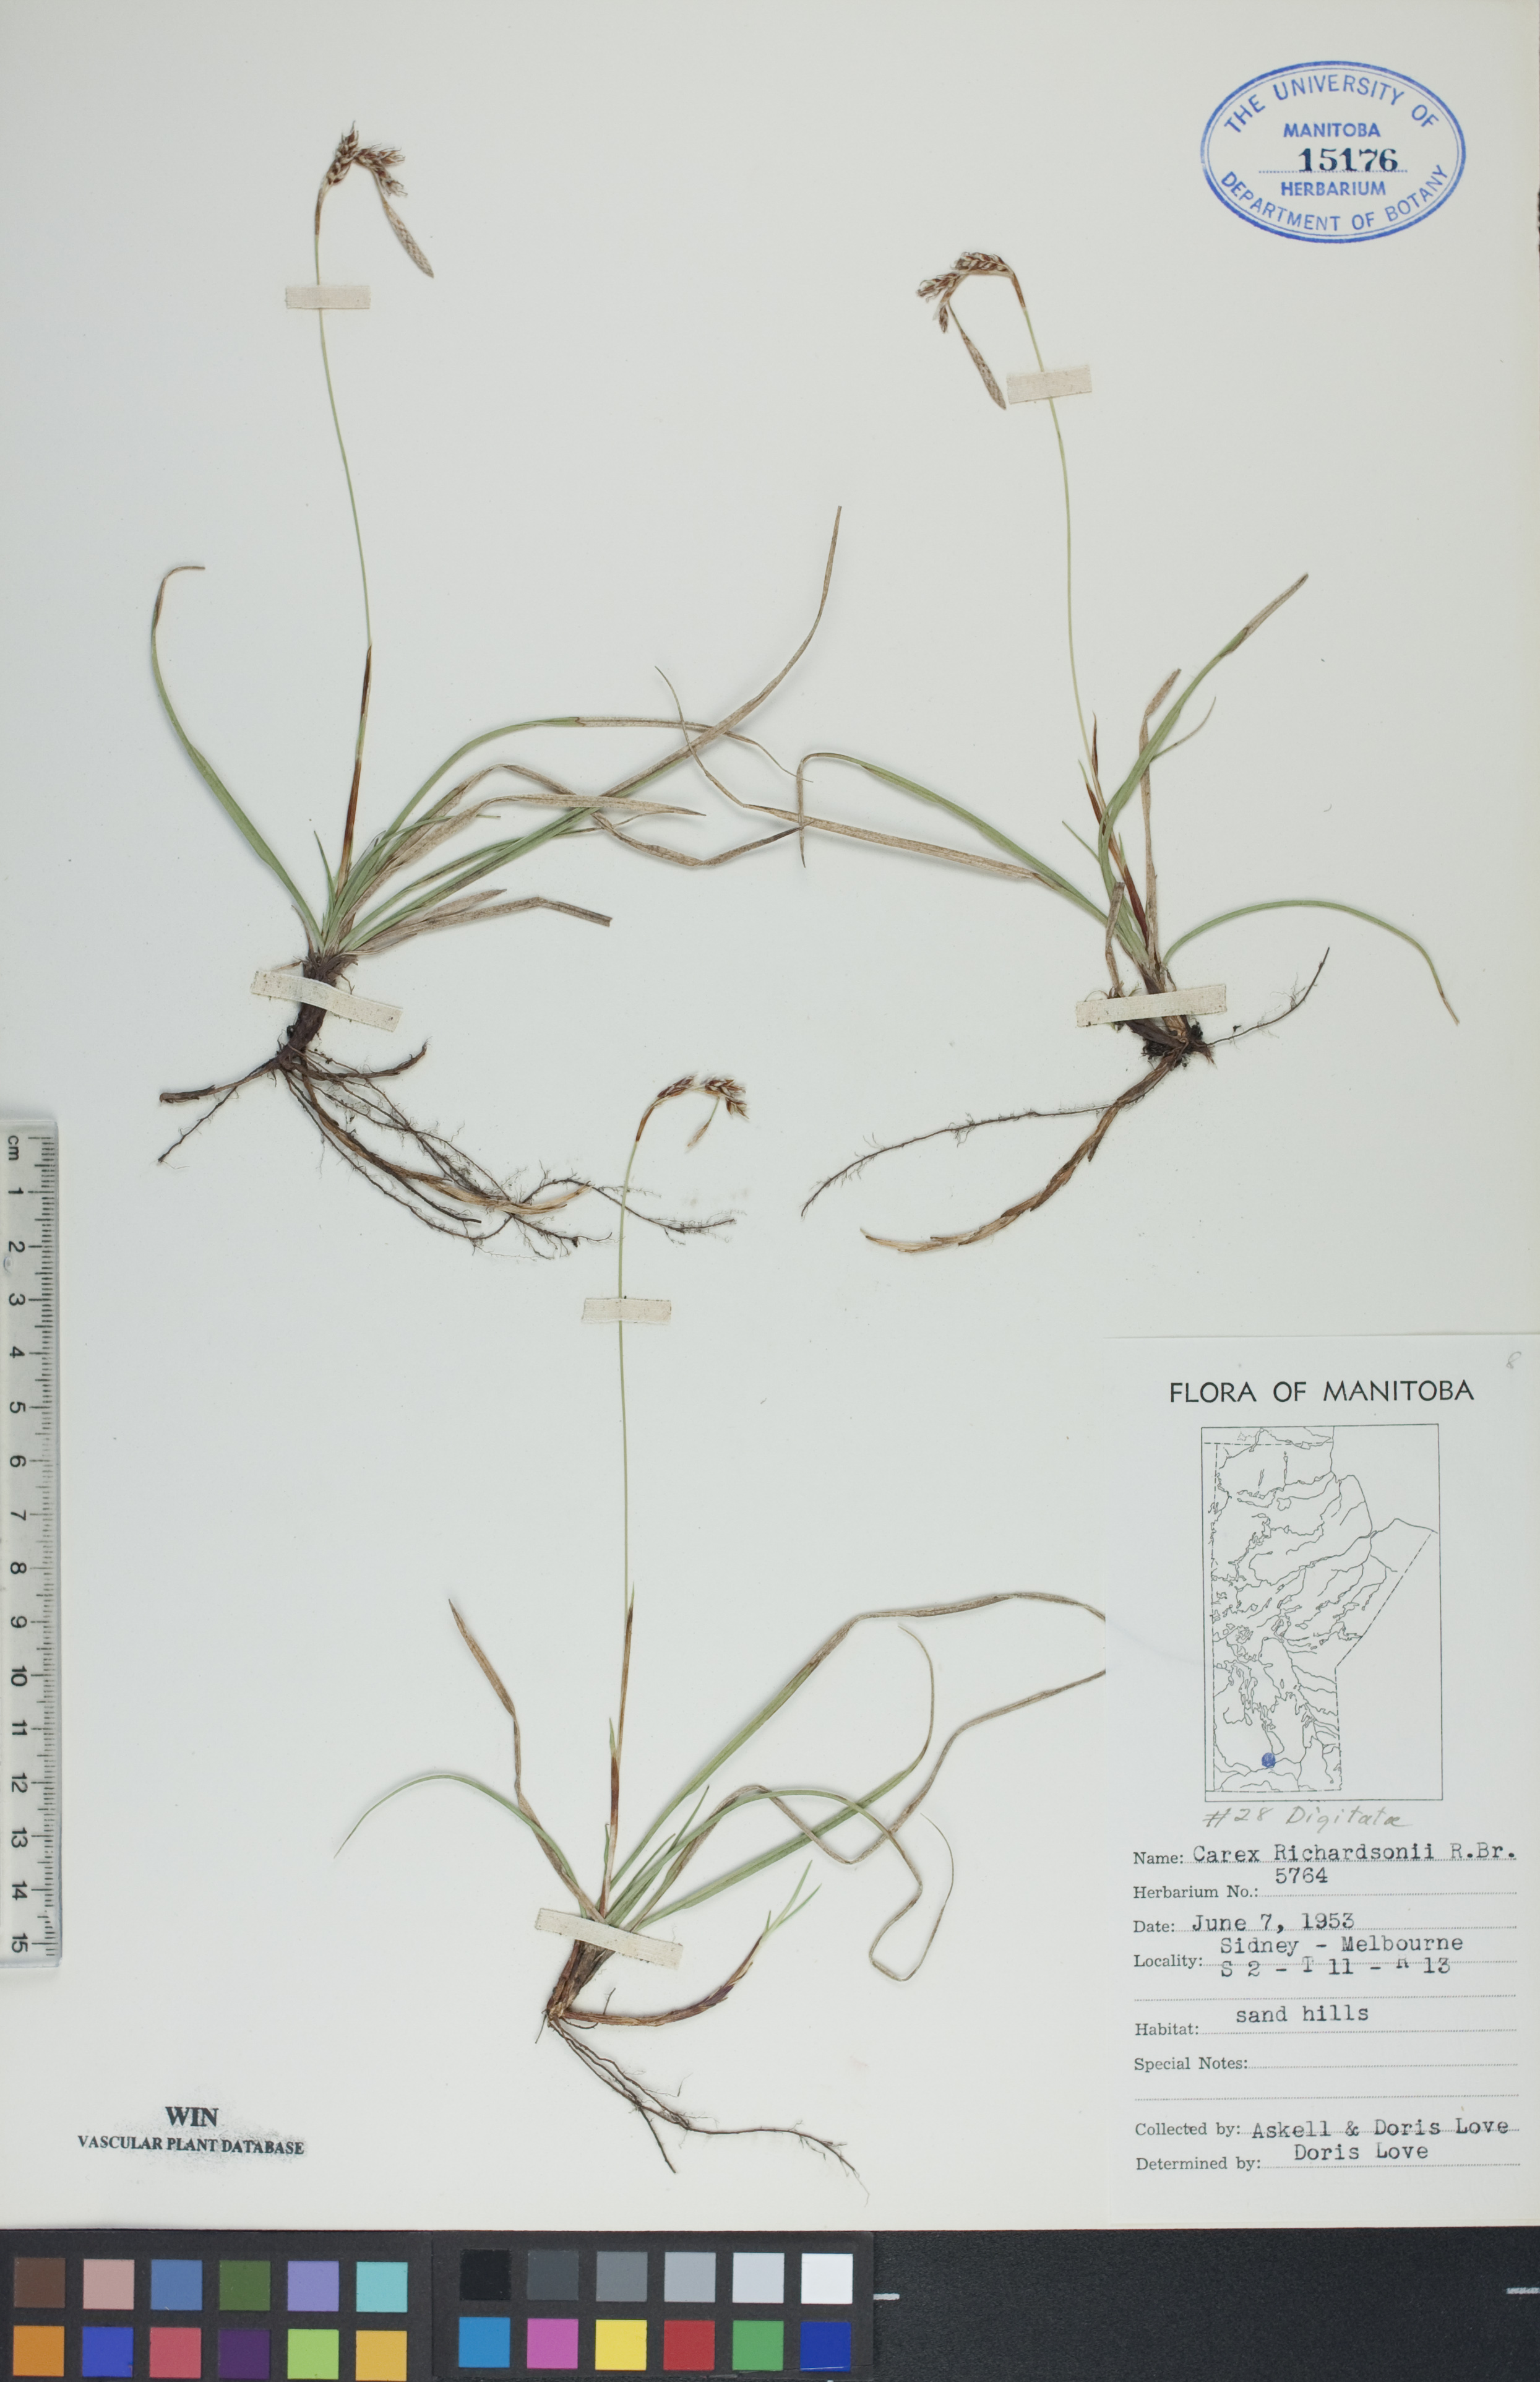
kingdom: Plantae
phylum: Tracheophyta
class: Liliopsida
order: Poales
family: Cyperaceae
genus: Carex
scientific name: Carex richardsonii
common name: Prairie hummock sedge
